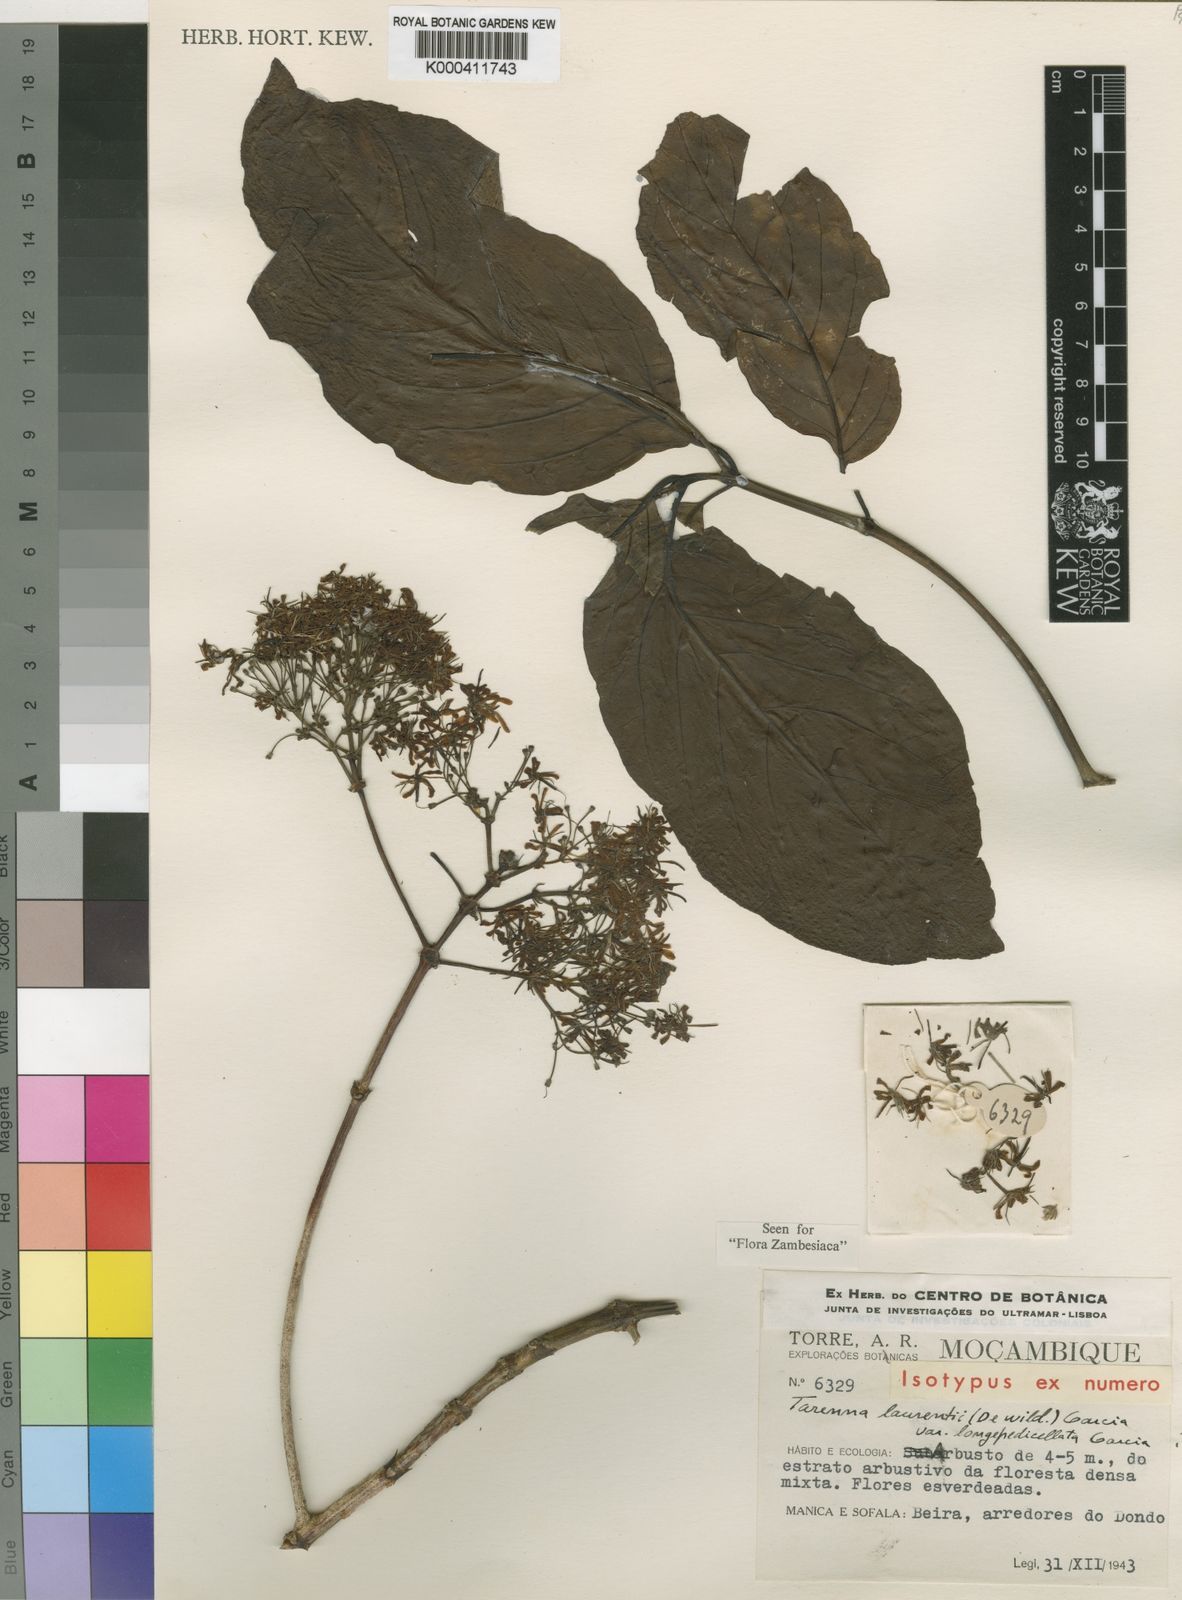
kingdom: Plantae
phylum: Tracheophyta
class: Magnoliopsida
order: Gentianales
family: Rubiaceae
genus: Tarenna
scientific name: Tarenna
